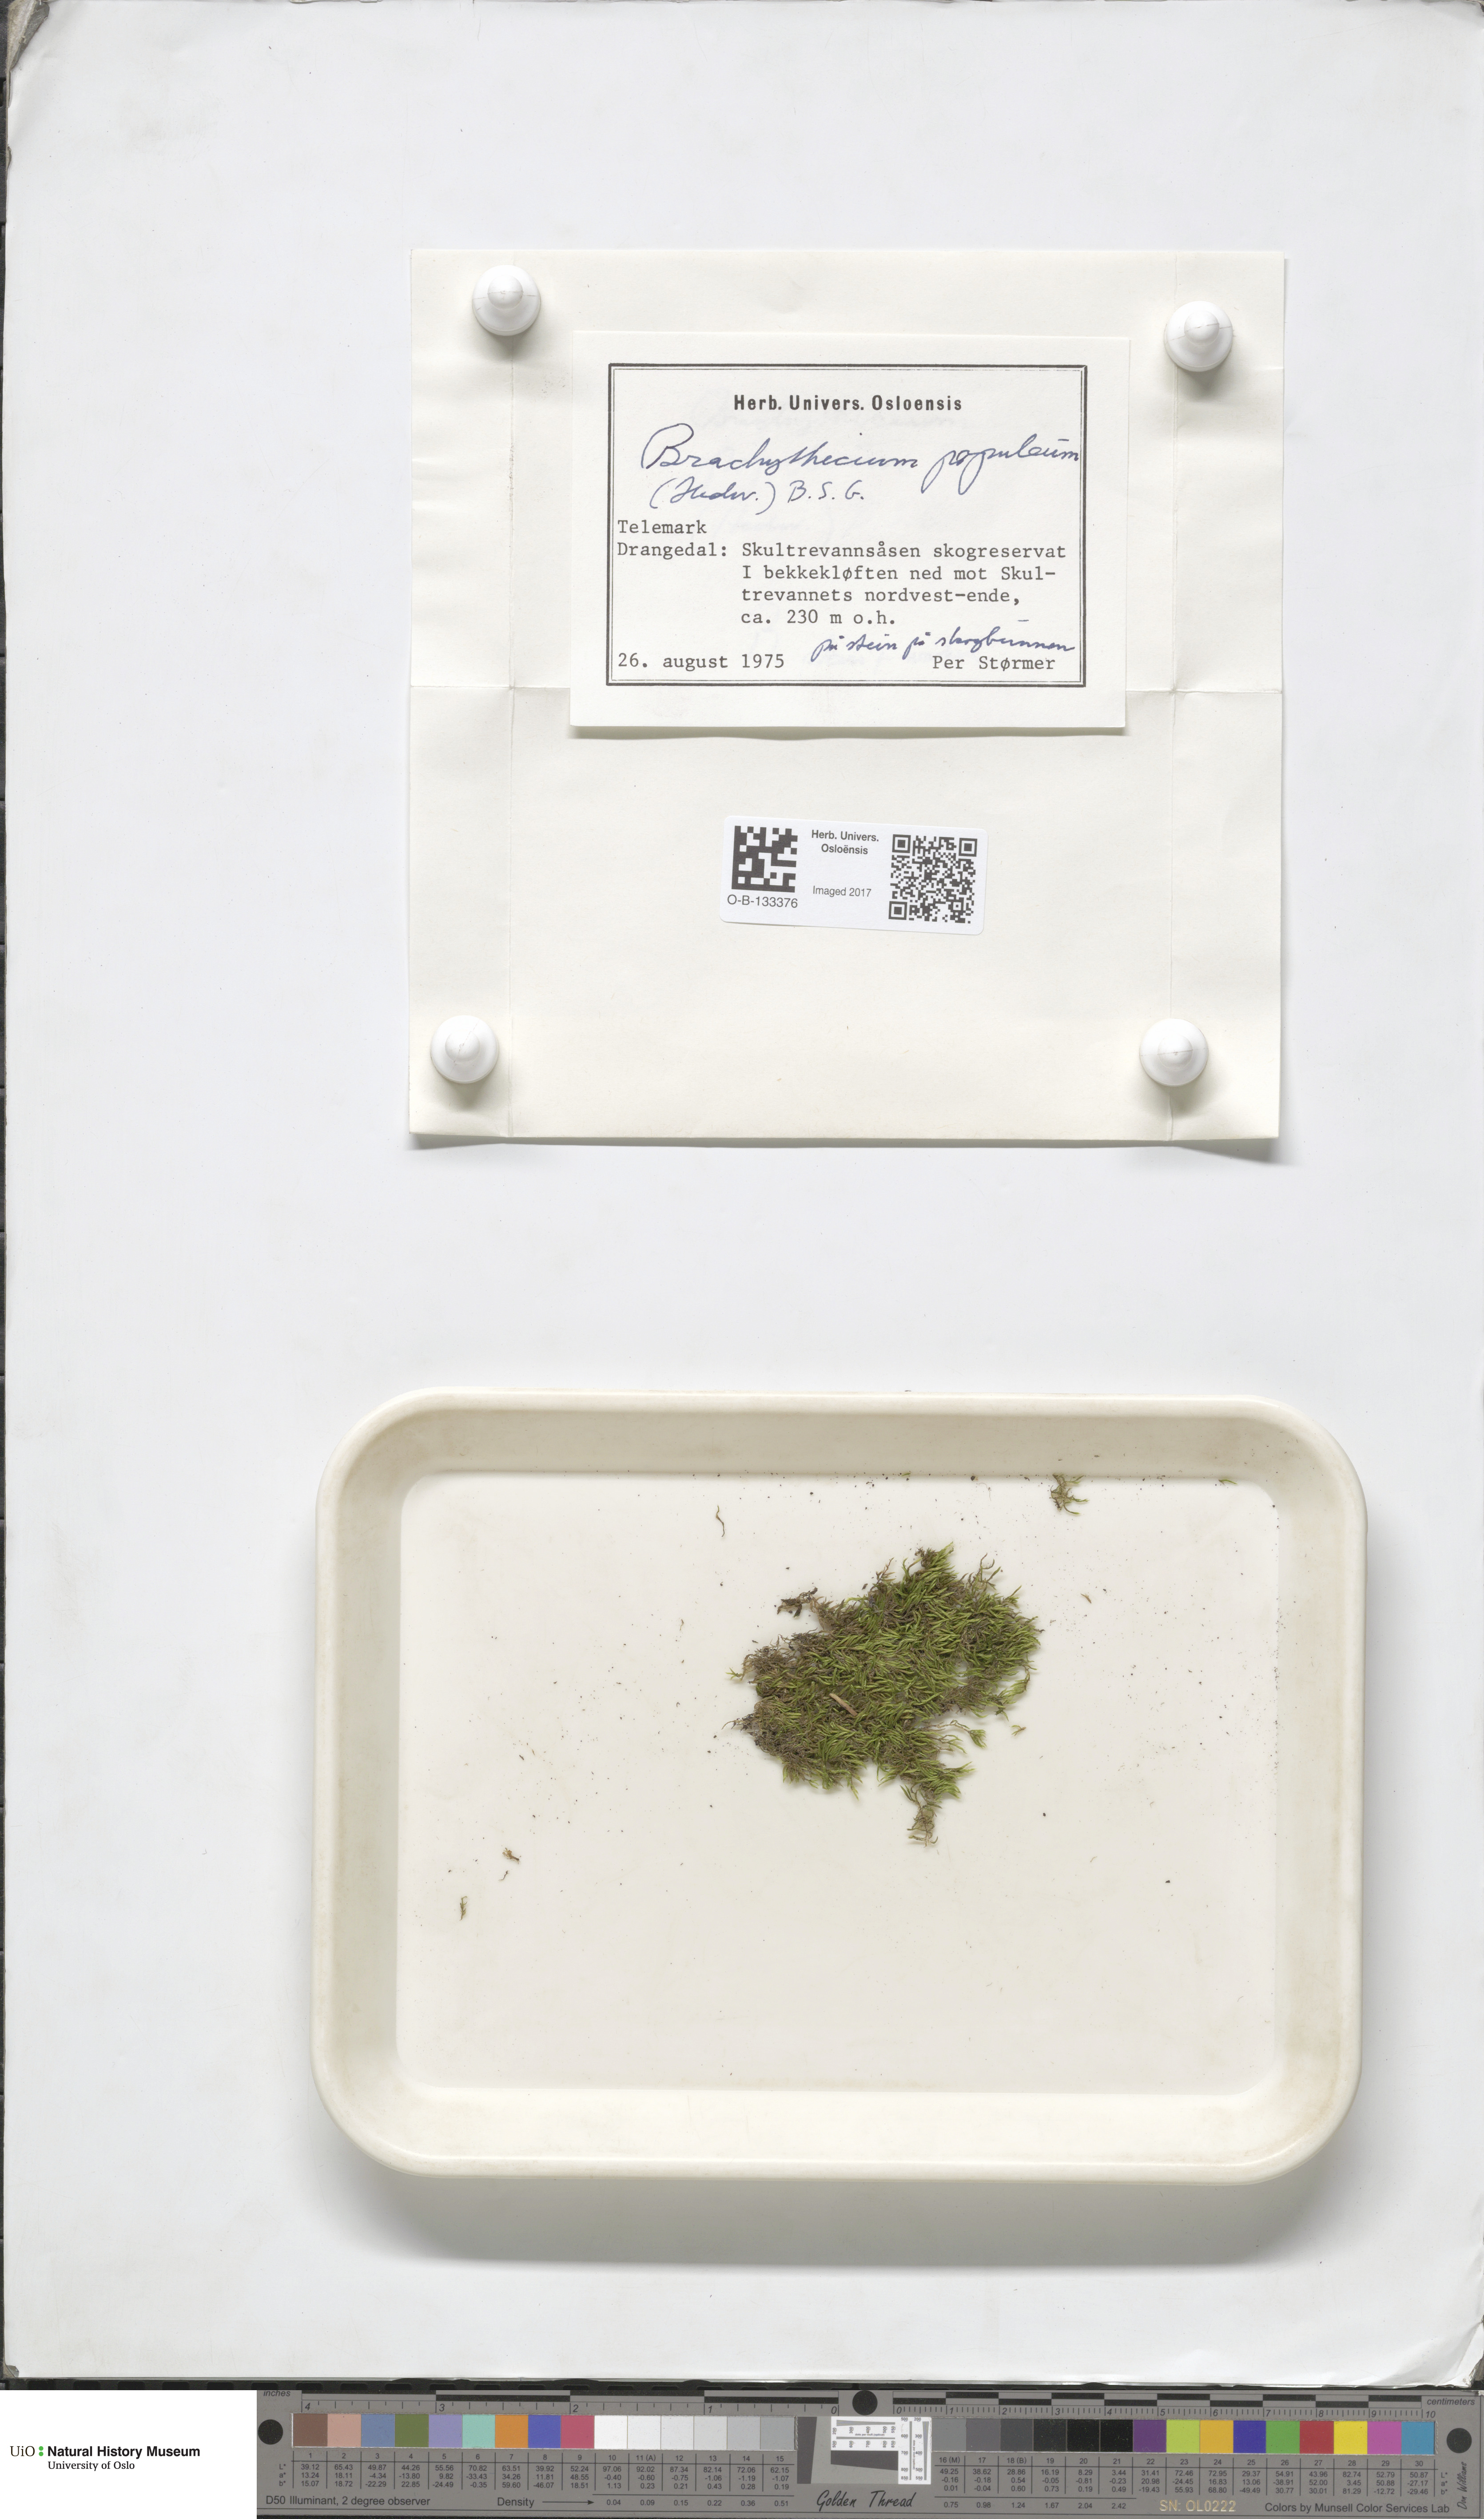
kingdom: Plantae
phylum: Bryophyta
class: Bryopsida
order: Hypnales
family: Brachytheciaceae
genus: Sciuro-hypnum
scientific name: Sciuro-hypnum plumosum
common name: Rusty feather-moss
